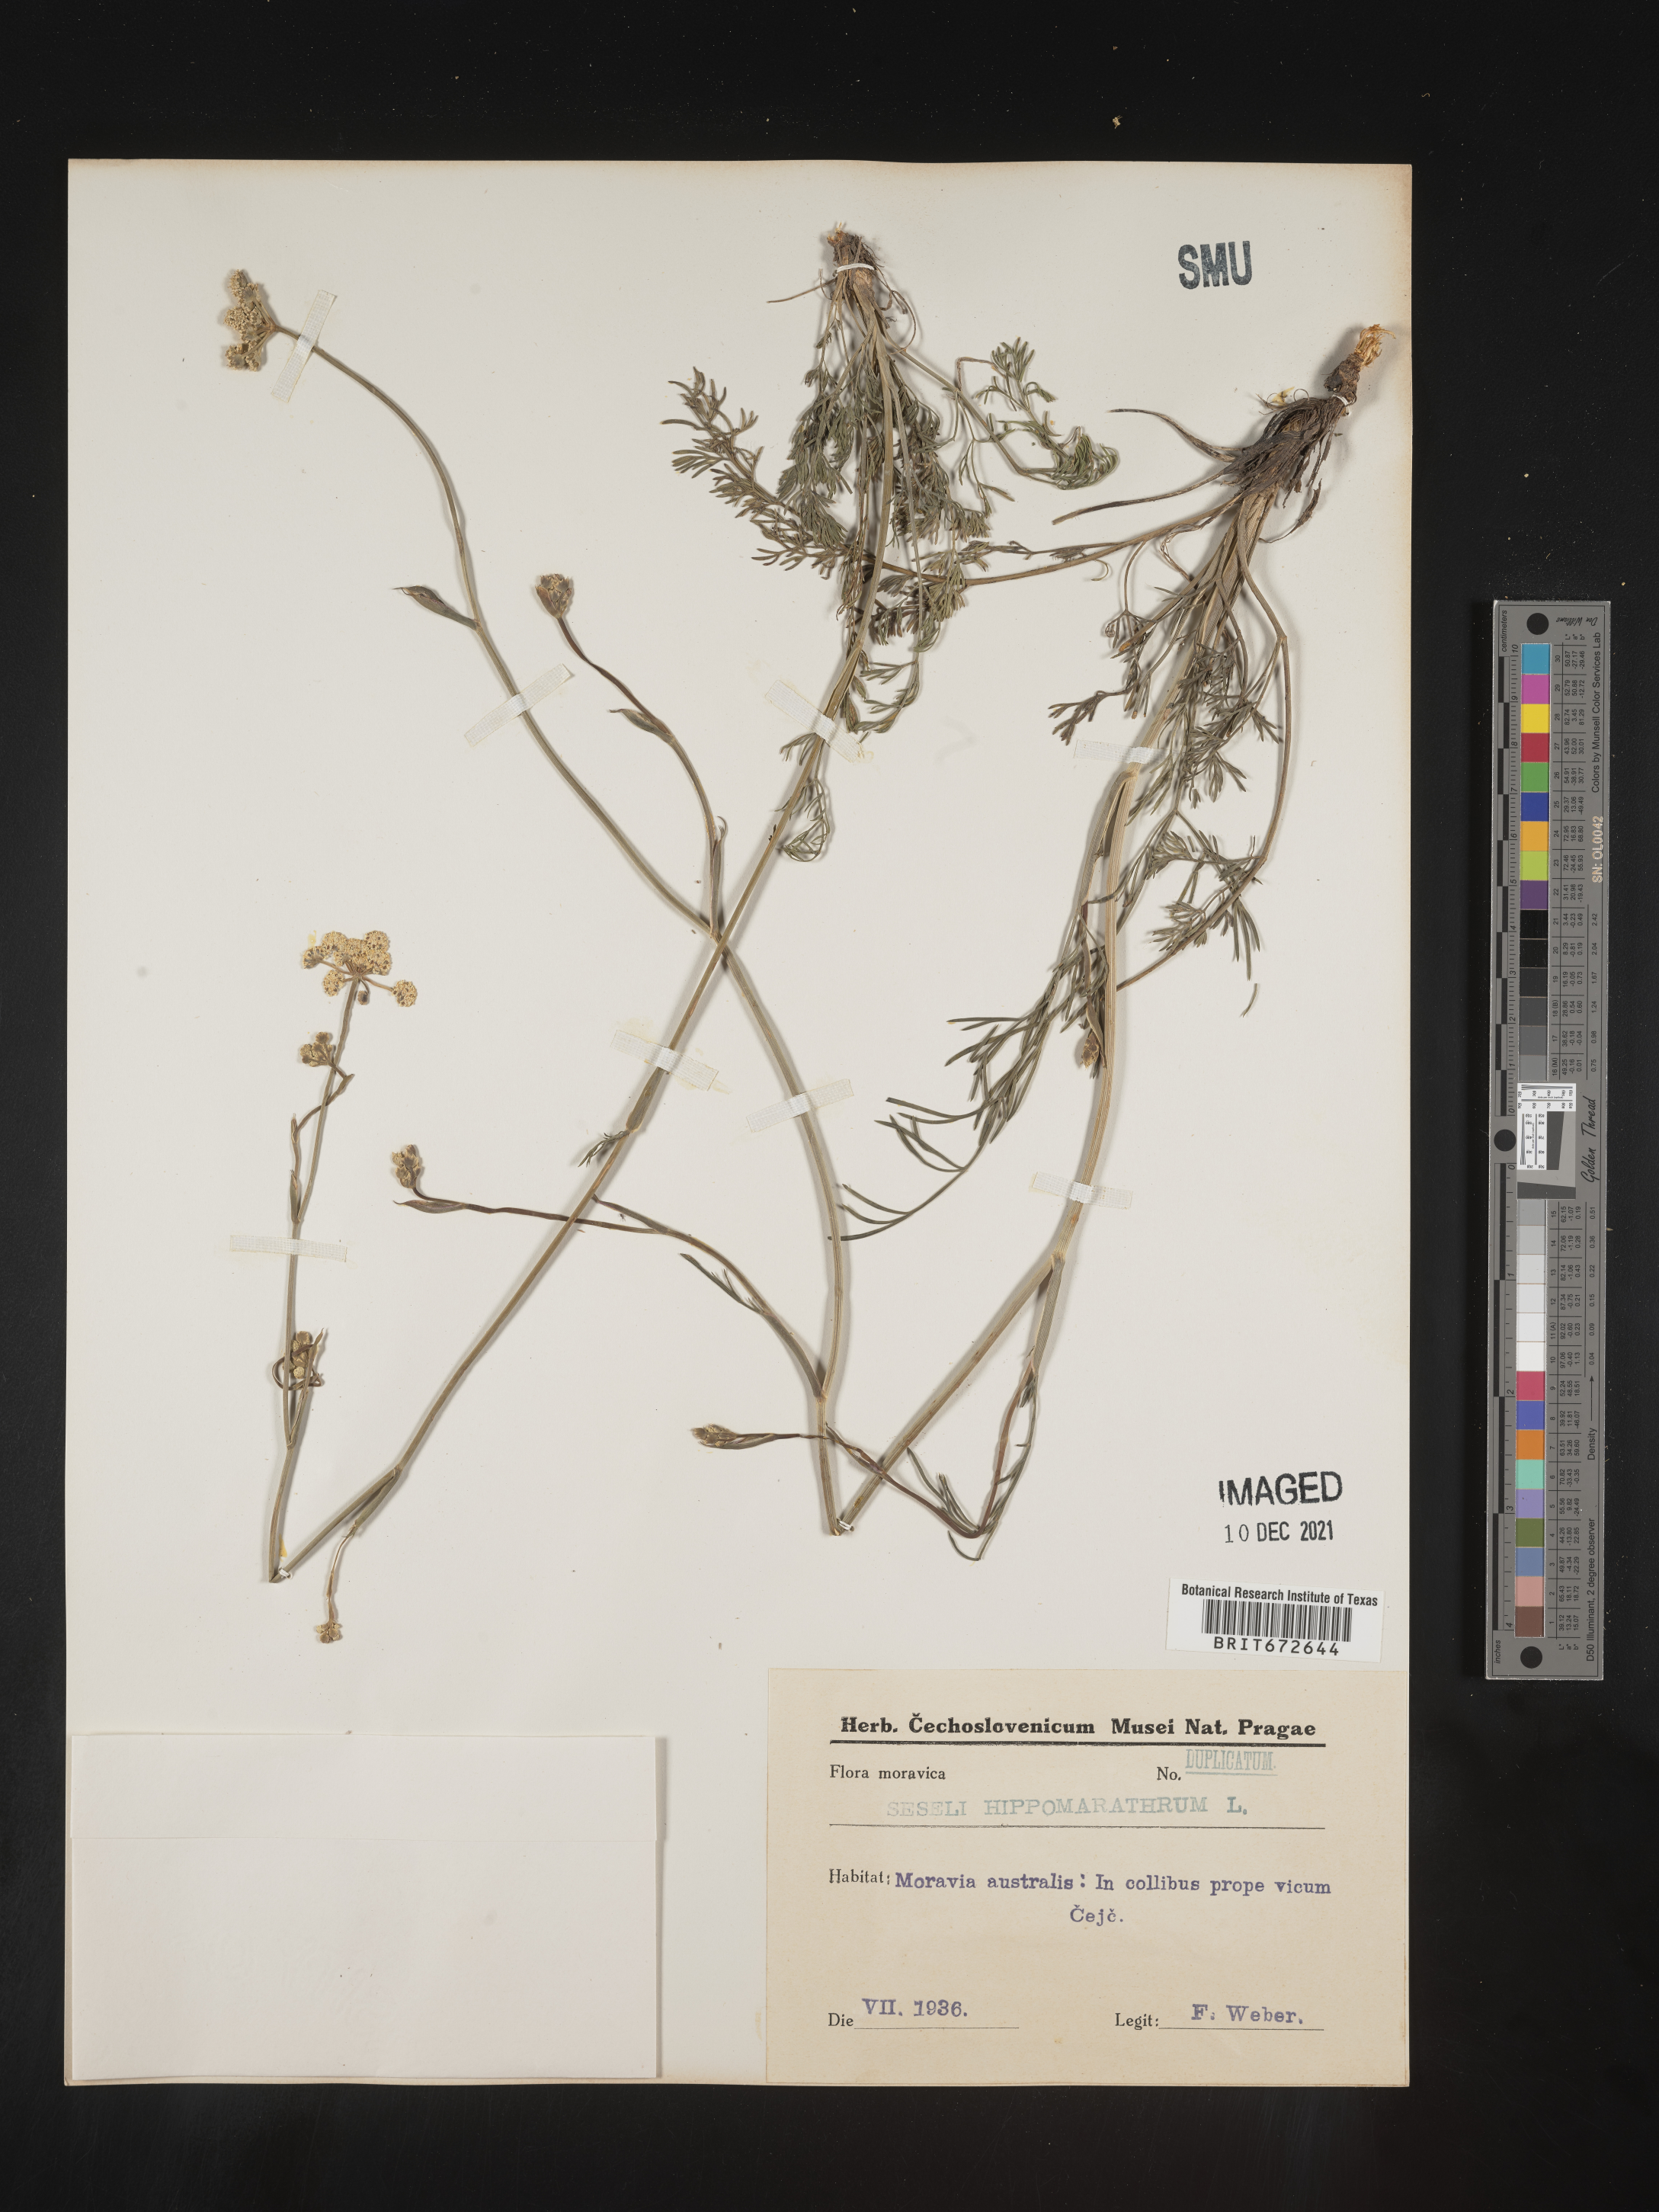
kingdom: Plantae
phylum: Tracheophyta
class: Magnoliopsida
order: Apiales
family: Apiaceae
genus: Seseli
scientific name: Seseli
